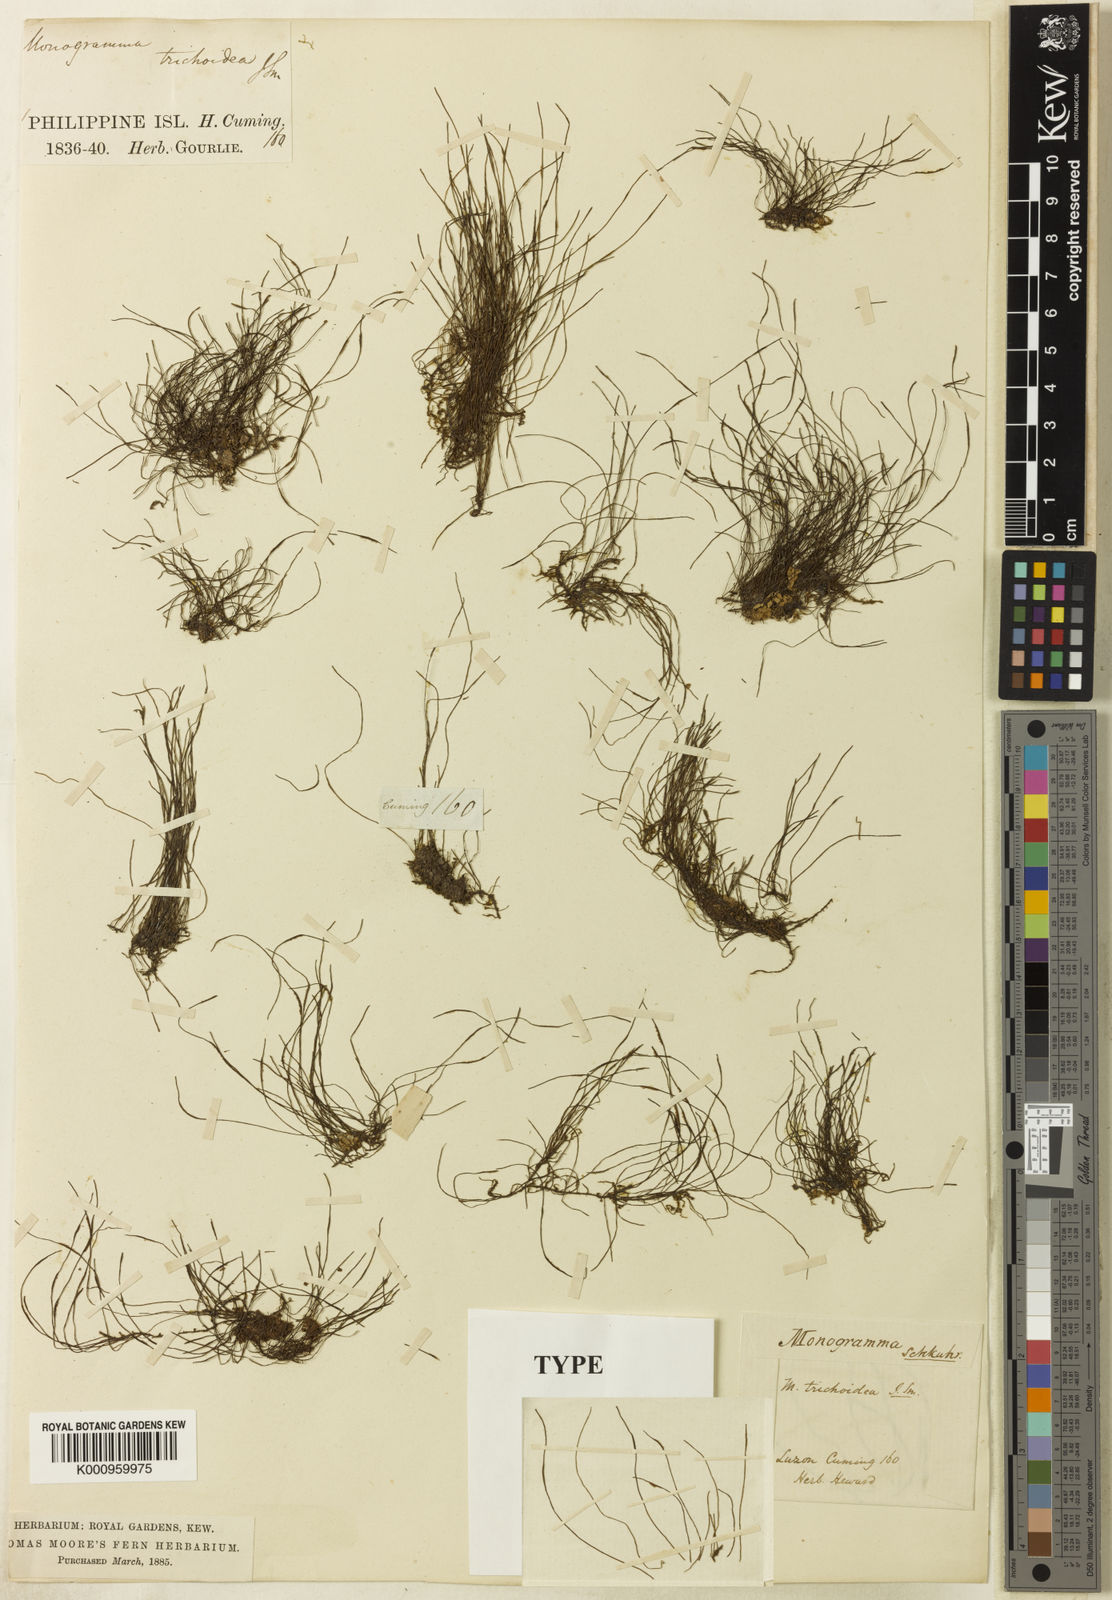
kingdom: Plantae
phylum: Tracheophyta
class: Polypodiopsida
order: Polypodiales
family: Pteridaceae
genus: Vaginularia
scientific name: Vaginularia trichoidea
